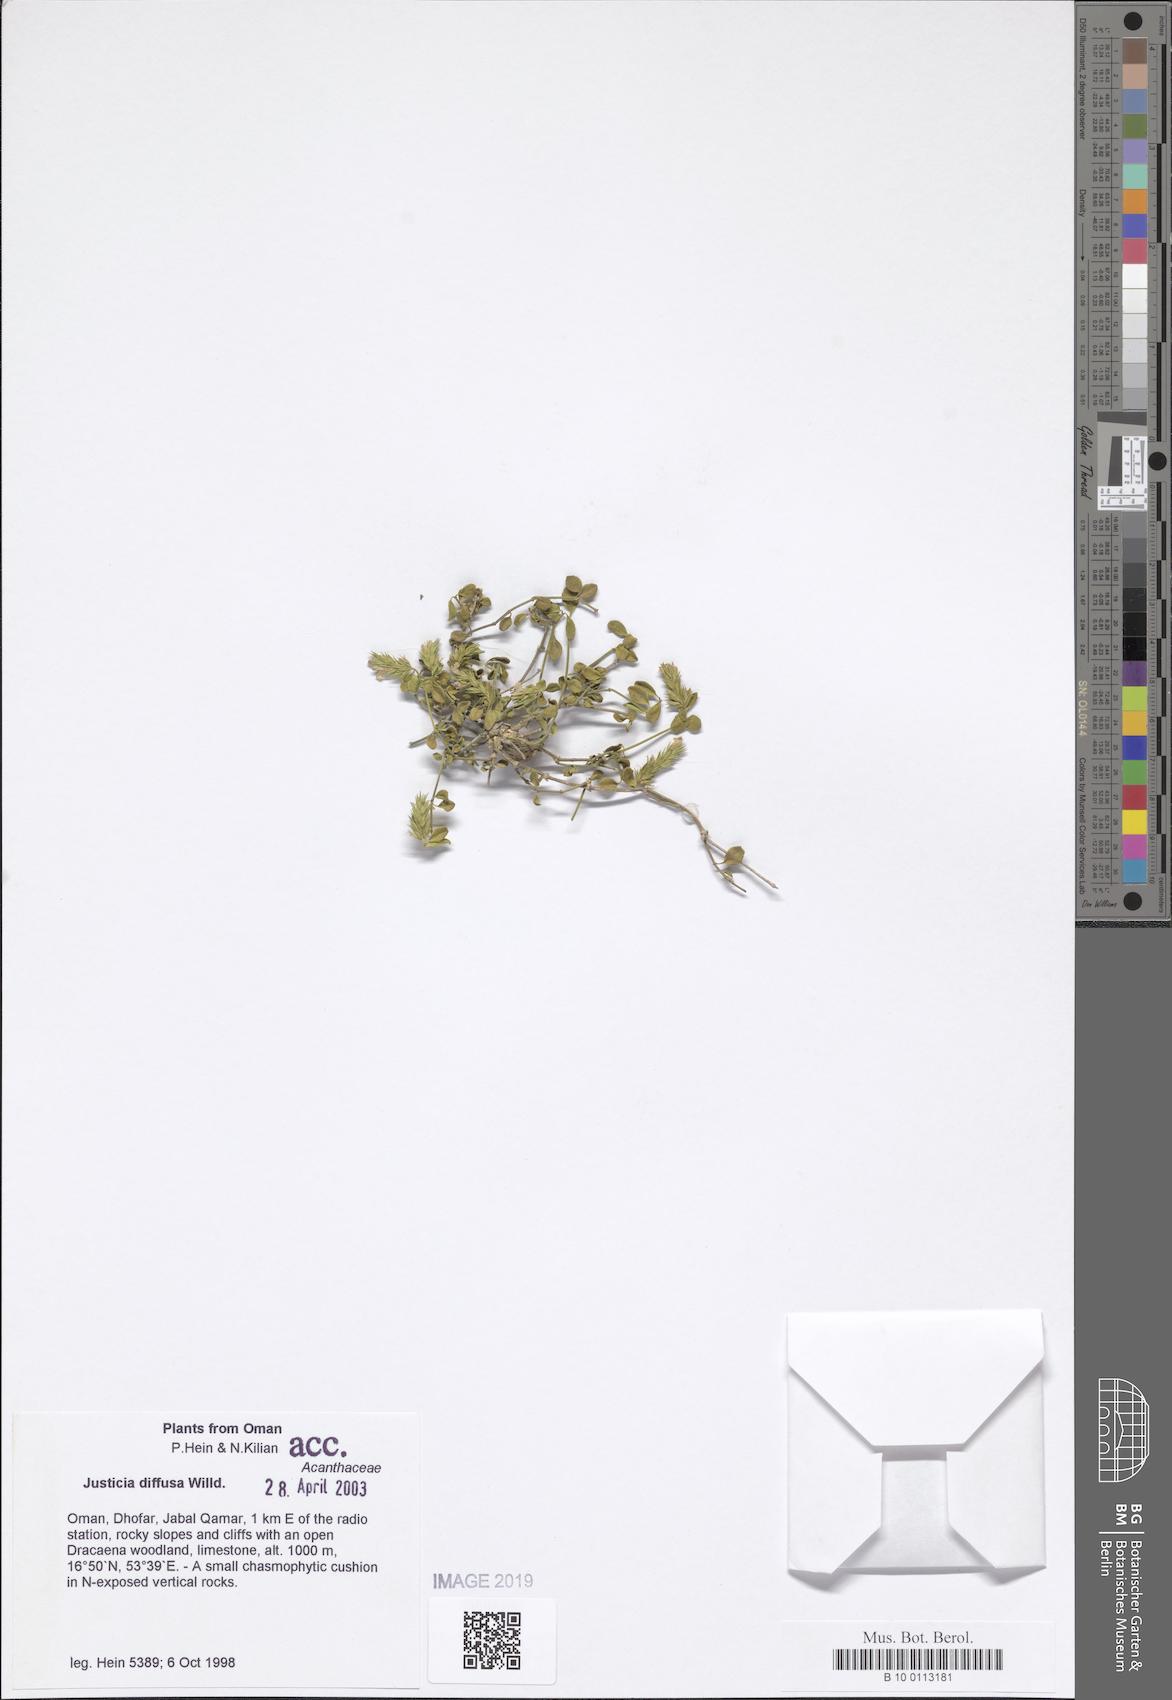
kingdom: Plantae
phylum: Tracheophyta
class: Magnoliopsida
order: Lamiales
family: Acanthaceae
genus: Rostellularia
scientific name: Rostellularia diffusa
